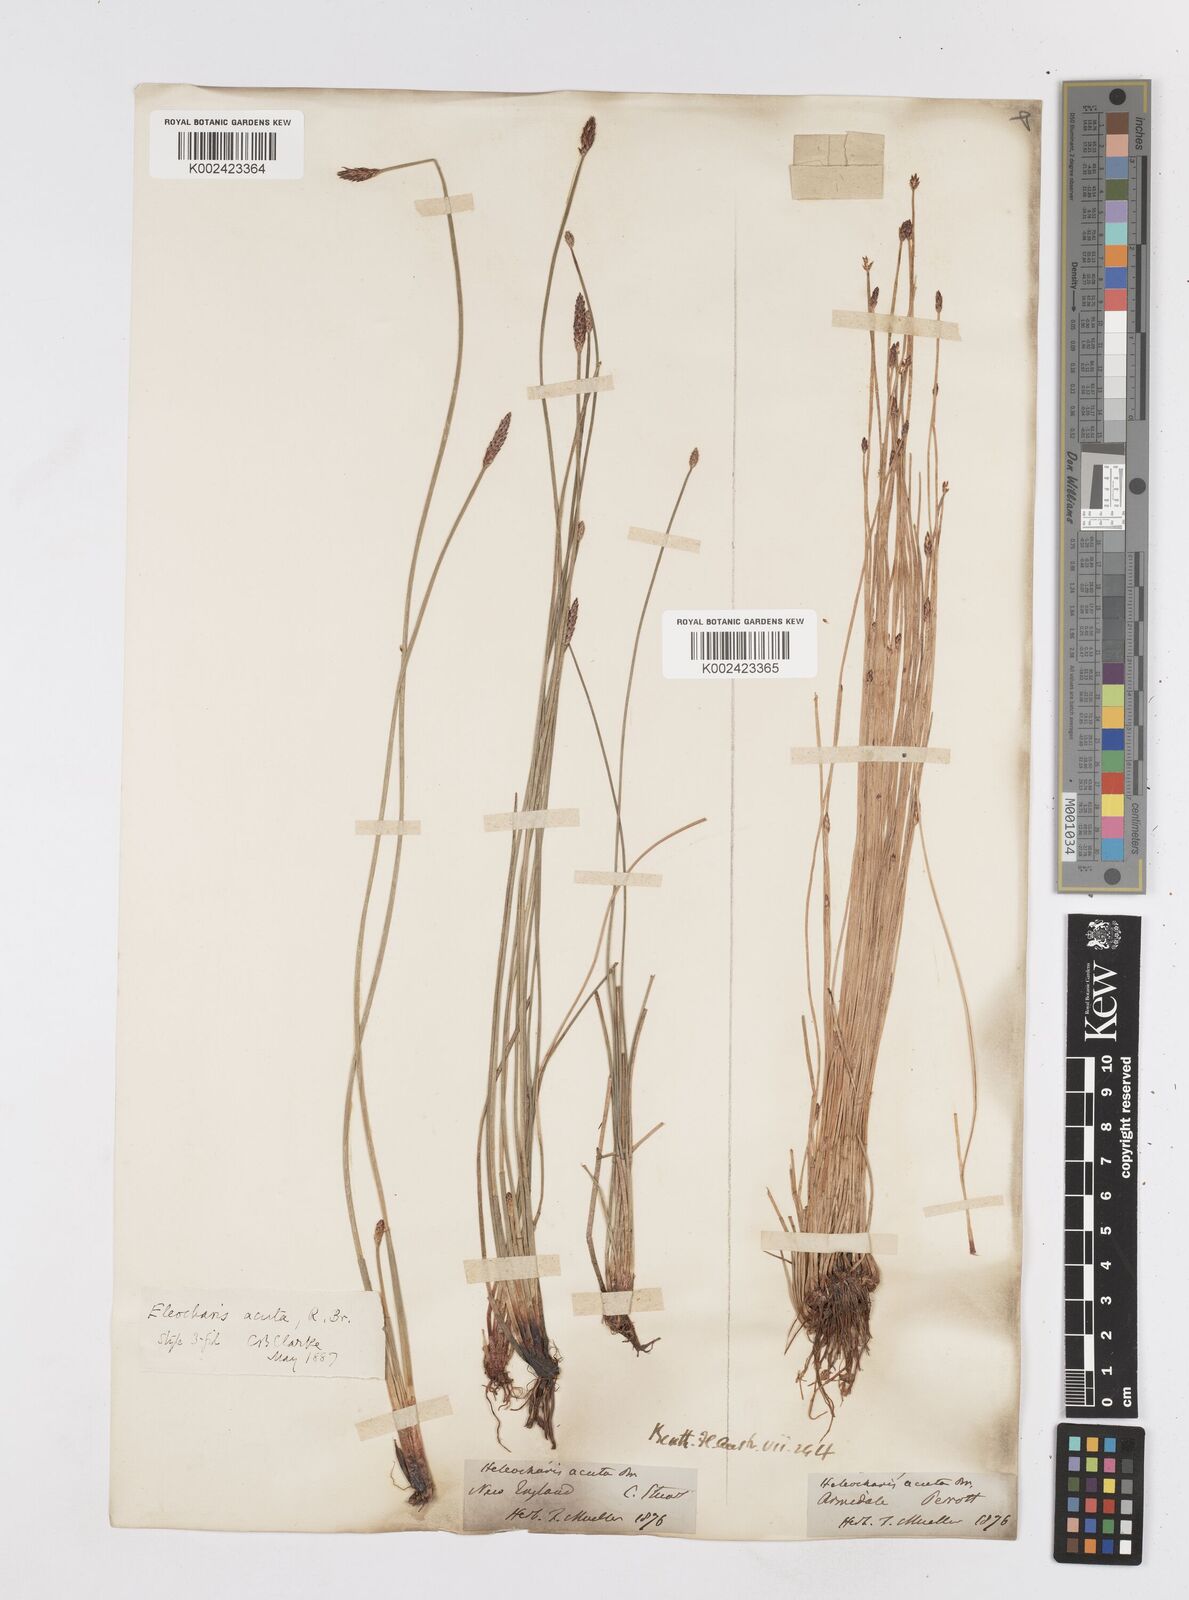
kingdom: Plantae
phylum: Tracheophyta
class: Liliopsida
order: Poales
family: Cyperaceae
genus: Eleocharis
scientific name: Eleocharis acuta
